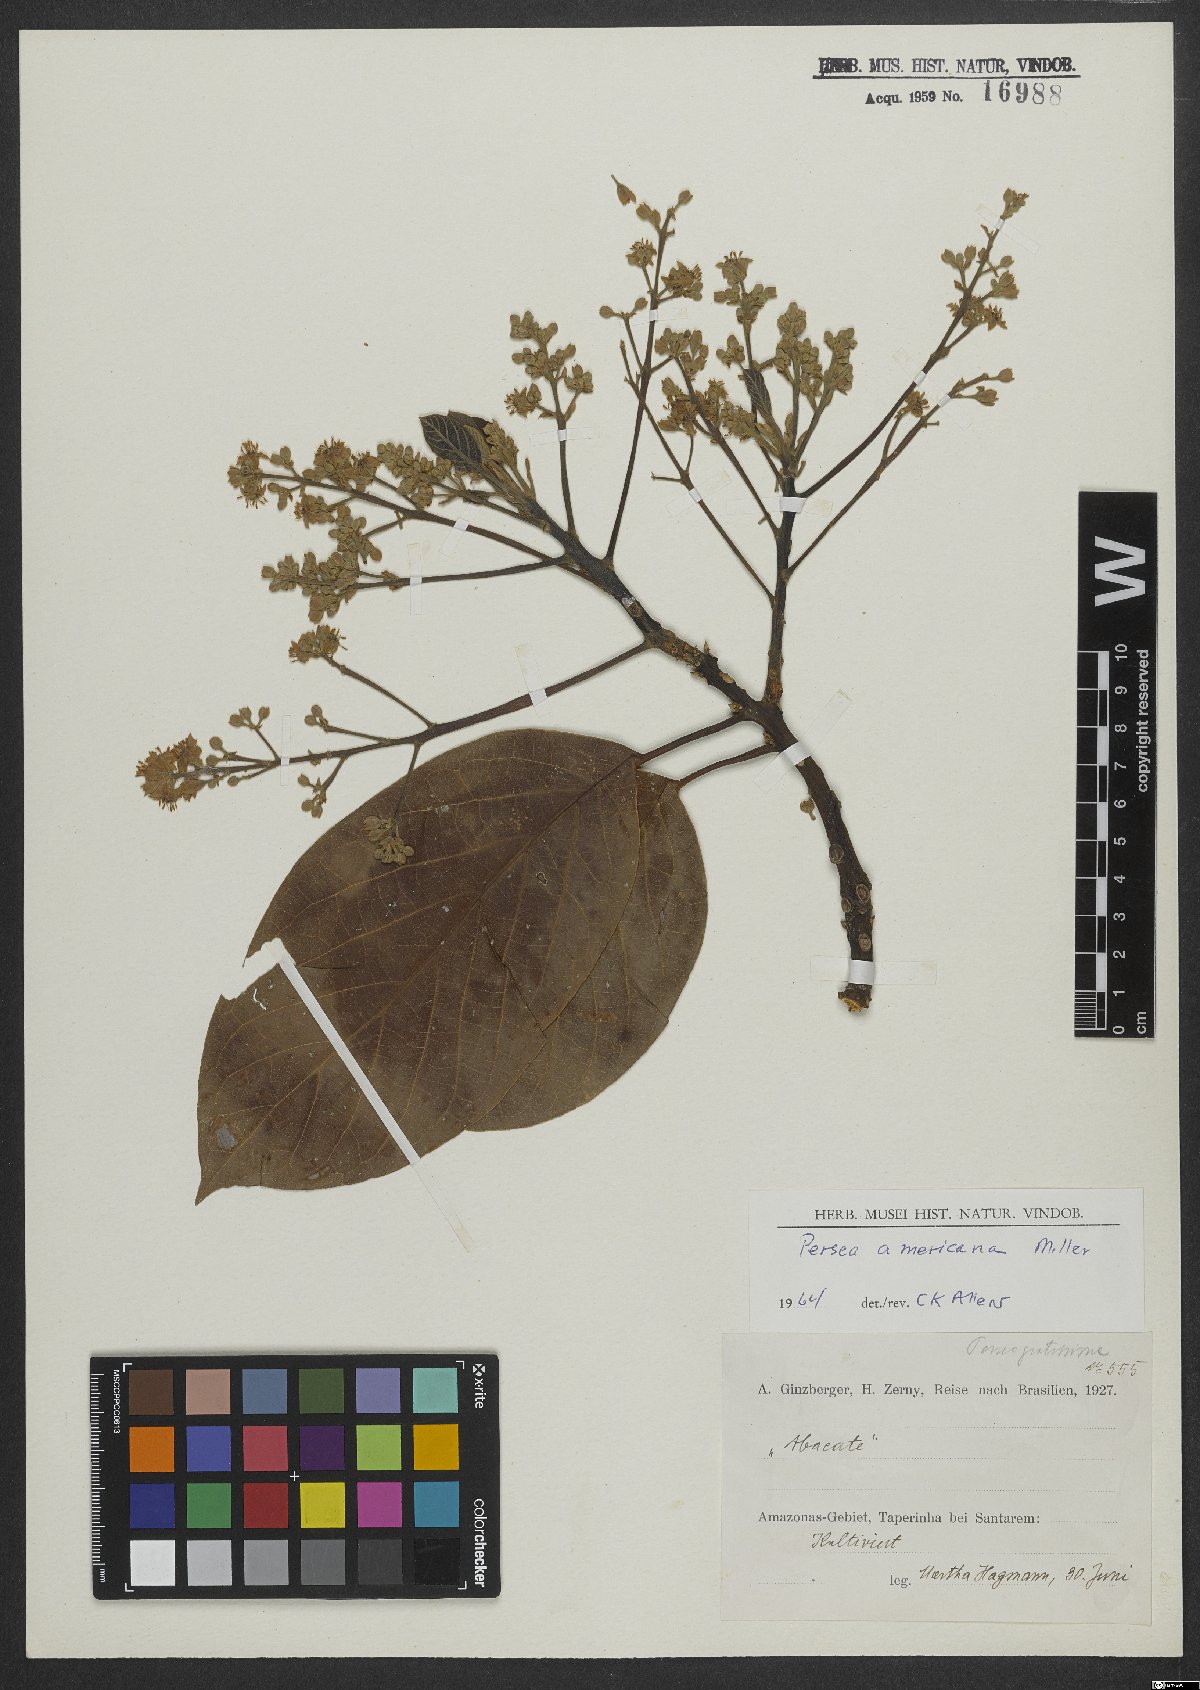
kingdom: Plantae
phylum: Tracheophyta
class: Magnoliopsida
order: Laurales
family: Lauraceae
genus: Persea
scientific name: Persea americana
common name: Avocado
